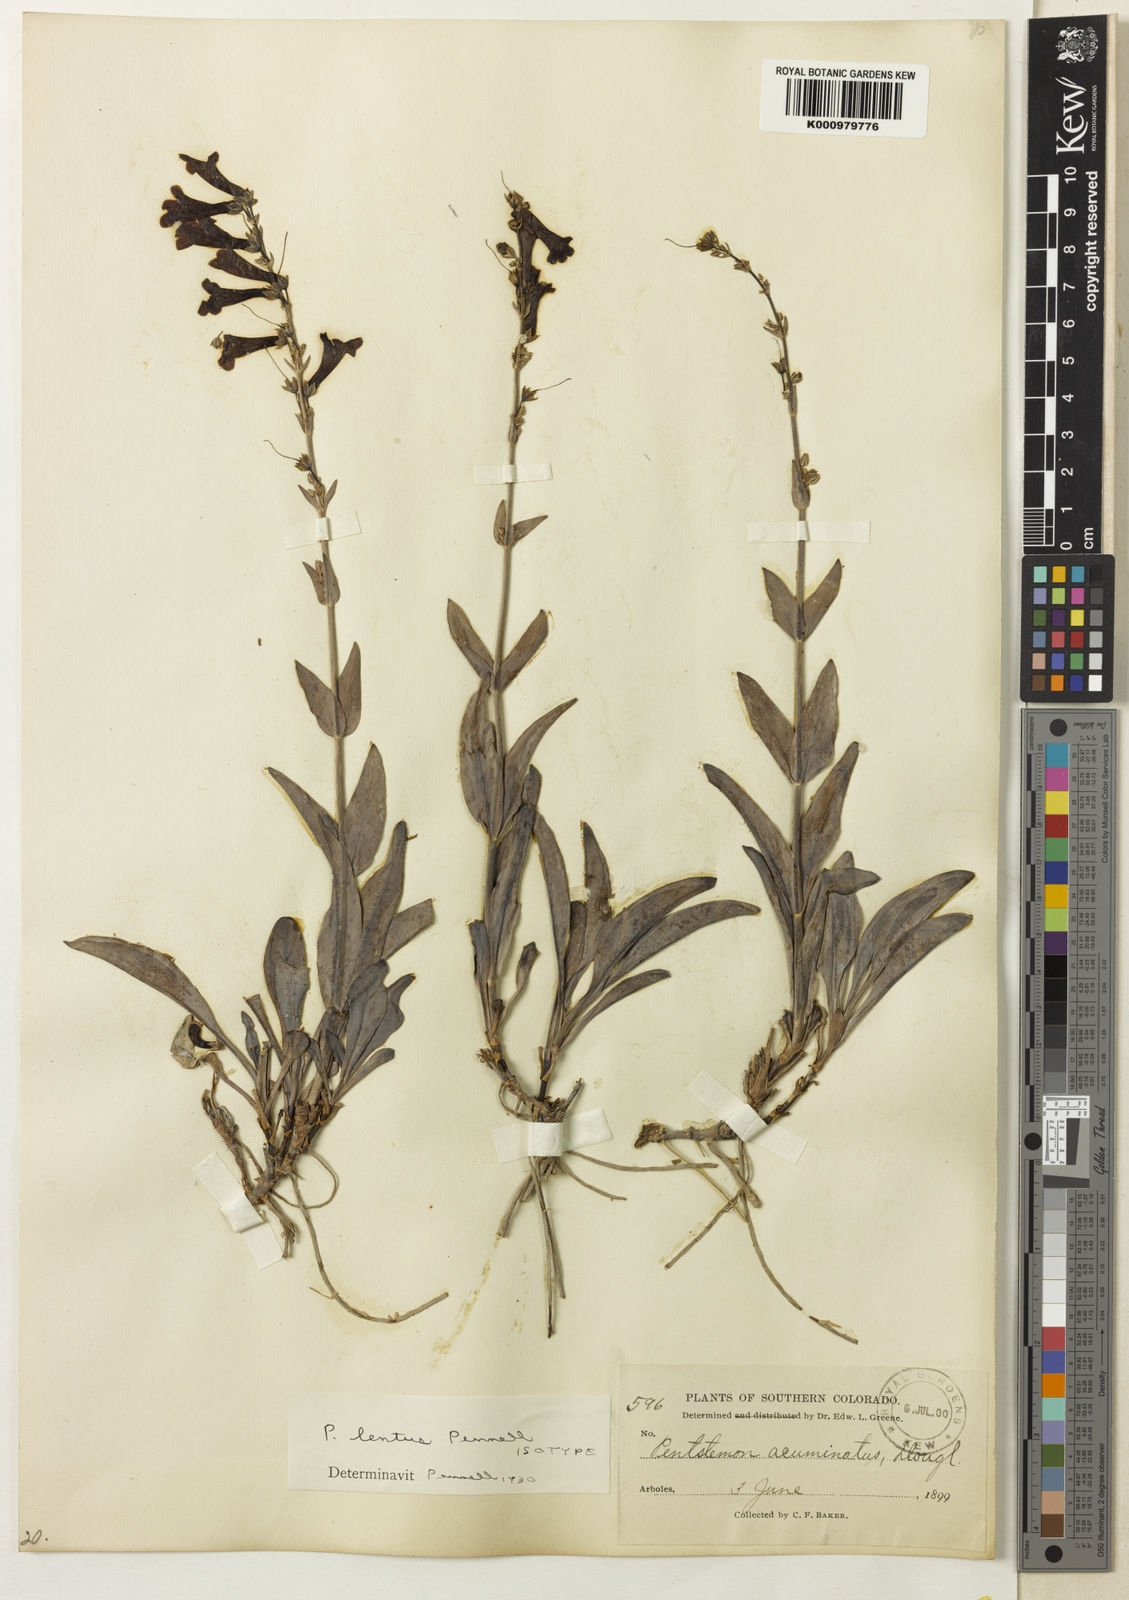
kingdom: Plantae
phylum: Tracheophyta
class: Magnoliopsida
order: Lamiales
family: Plantaginaceae
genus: Penstemon
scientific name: Penstemon lentus
